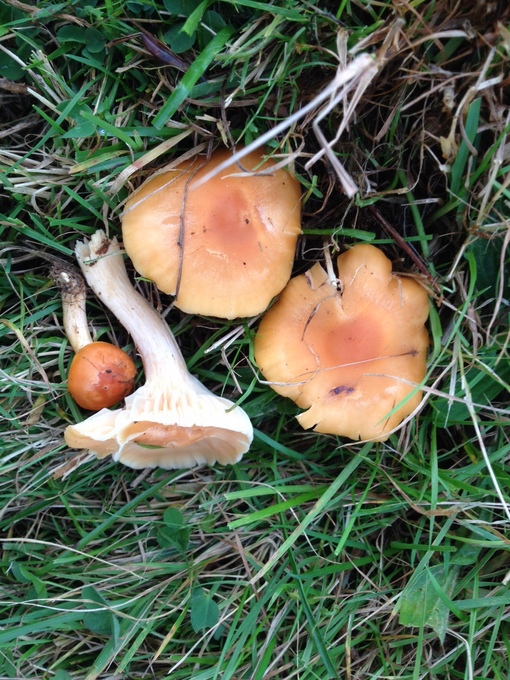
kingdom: Fungi
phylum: Basidiomycota
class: Agaricomycetes
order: Agaricales
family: Hygrophoraceae
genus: Cuphophyllus
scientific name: Cuphophyllus pratensis
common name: eng-vokshat
